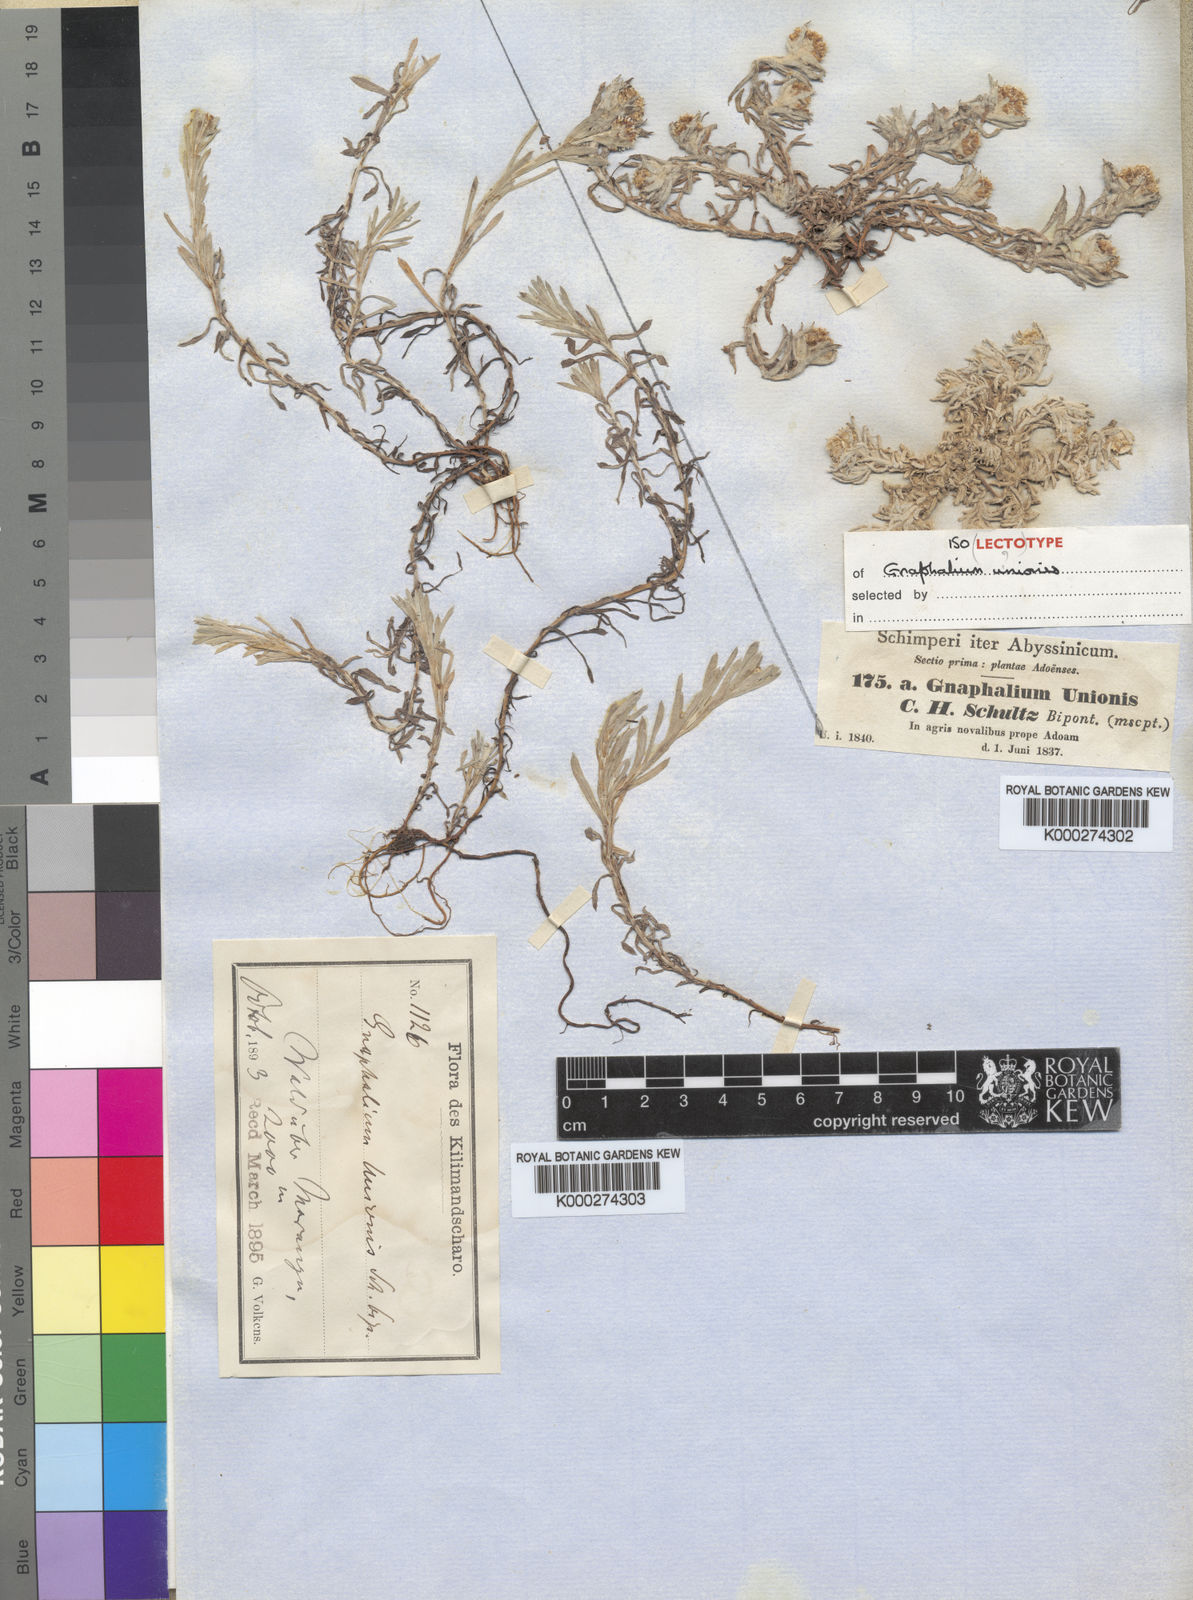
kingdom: Plantae
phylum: Tracheophyta
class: Magnoliopsida
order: Asterales
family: Asteraceae
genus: Gnaphalium
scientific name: Gnaphalium
